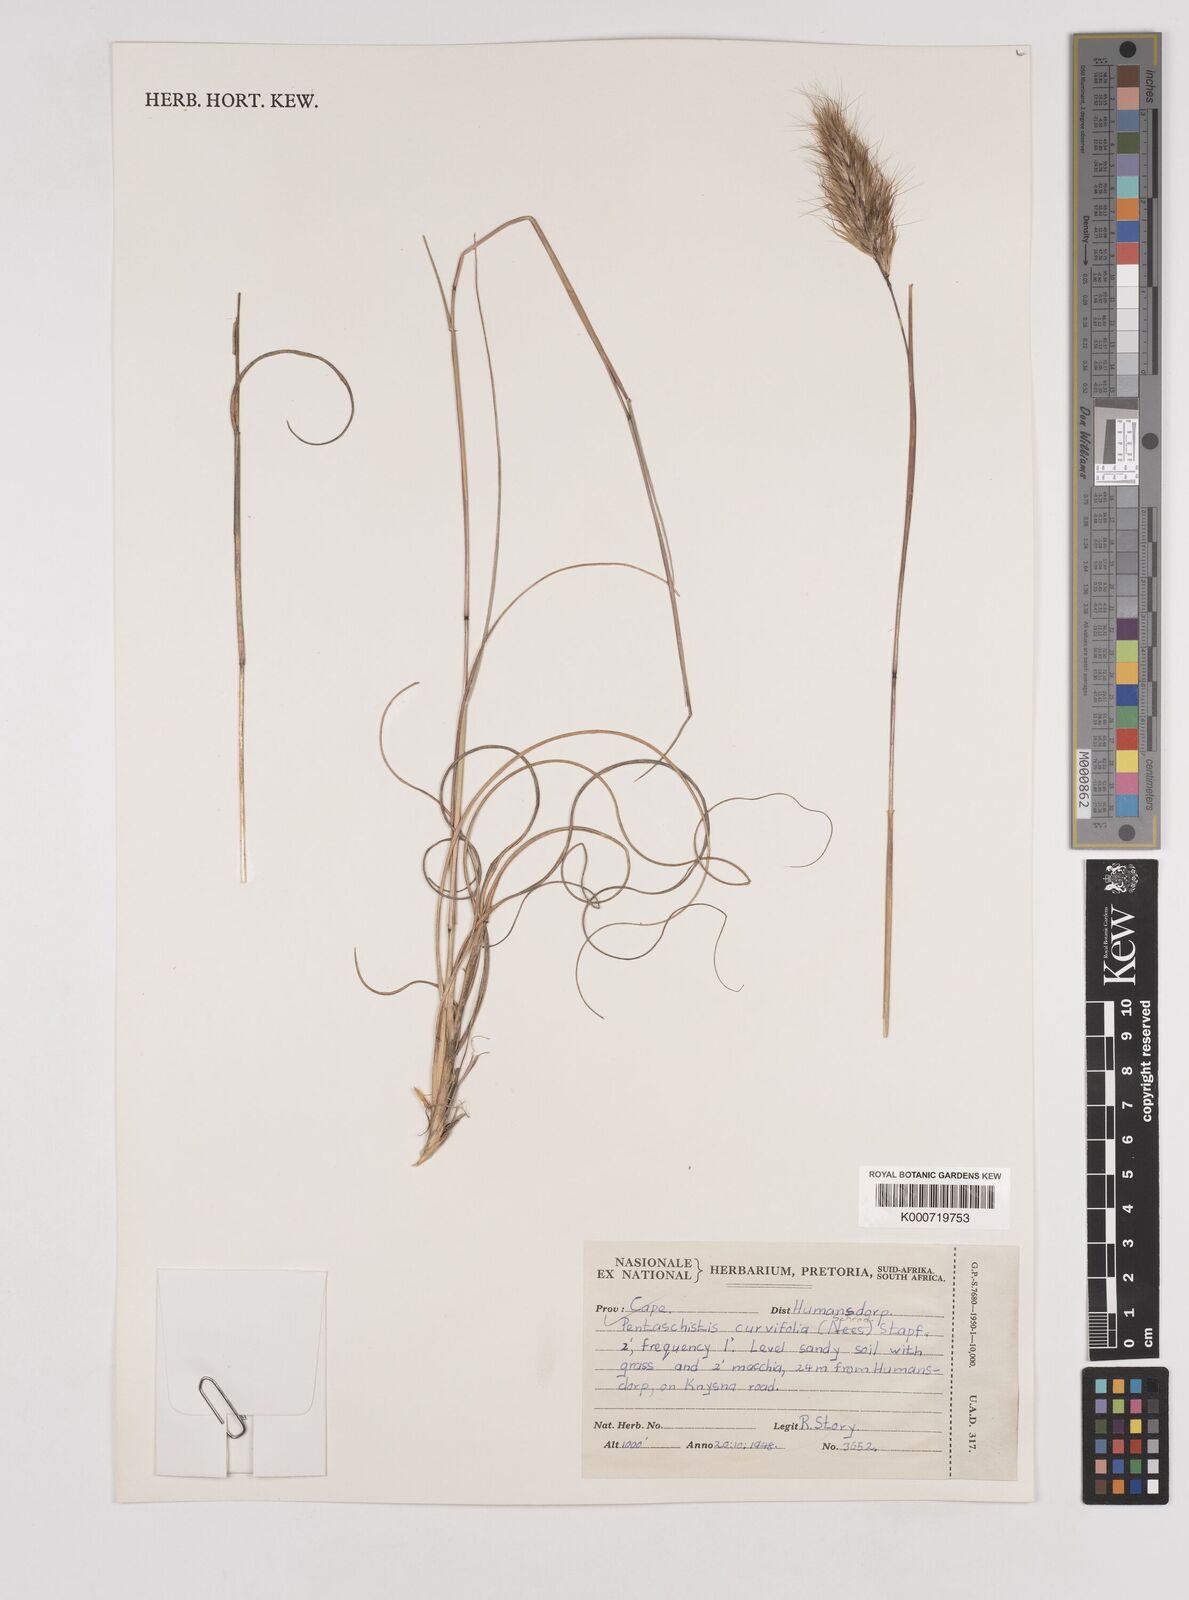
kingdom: Plantae
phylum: Tracheophyta
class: Liliopsida
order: Poales
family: Poaceae
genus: Pentameris
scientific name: Pentameris curvifolia
